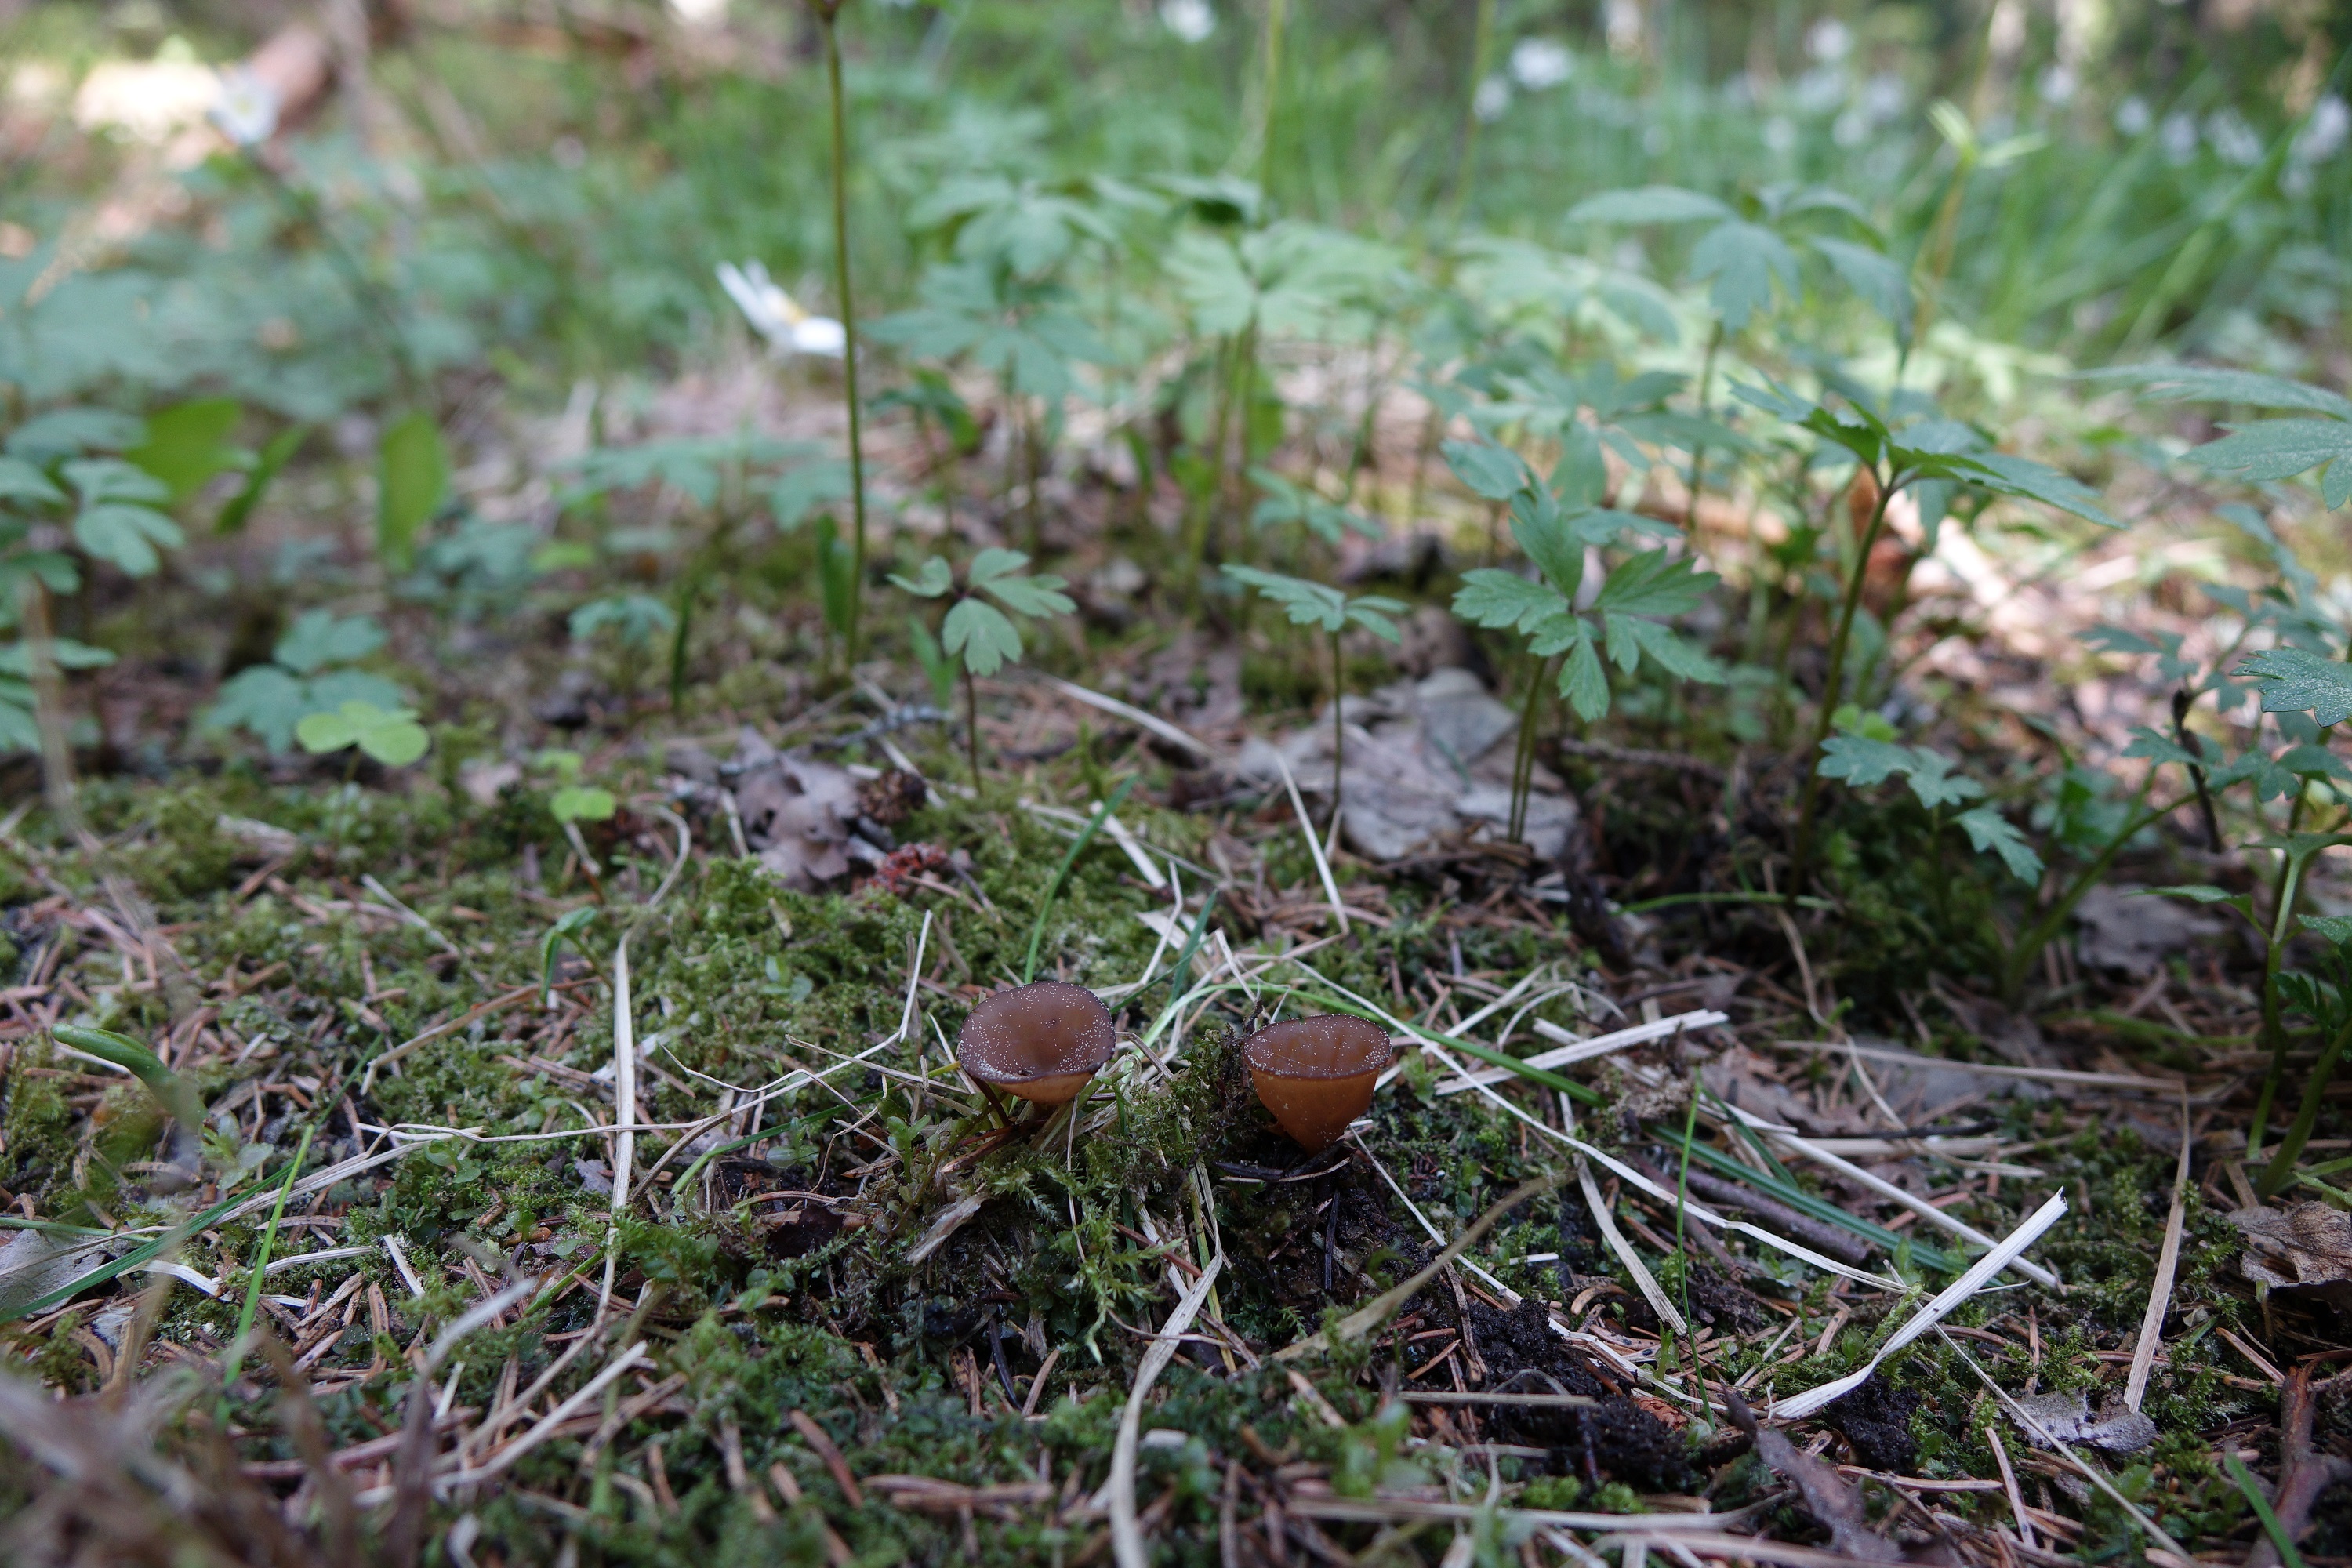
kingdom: Fungi
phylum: Ascomycota
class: Leotiomycetes
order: Helotiales
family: Sclerotiniaceae
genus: Dumontinia
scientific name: Dumontinia tuberosa
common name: Anemone cup
